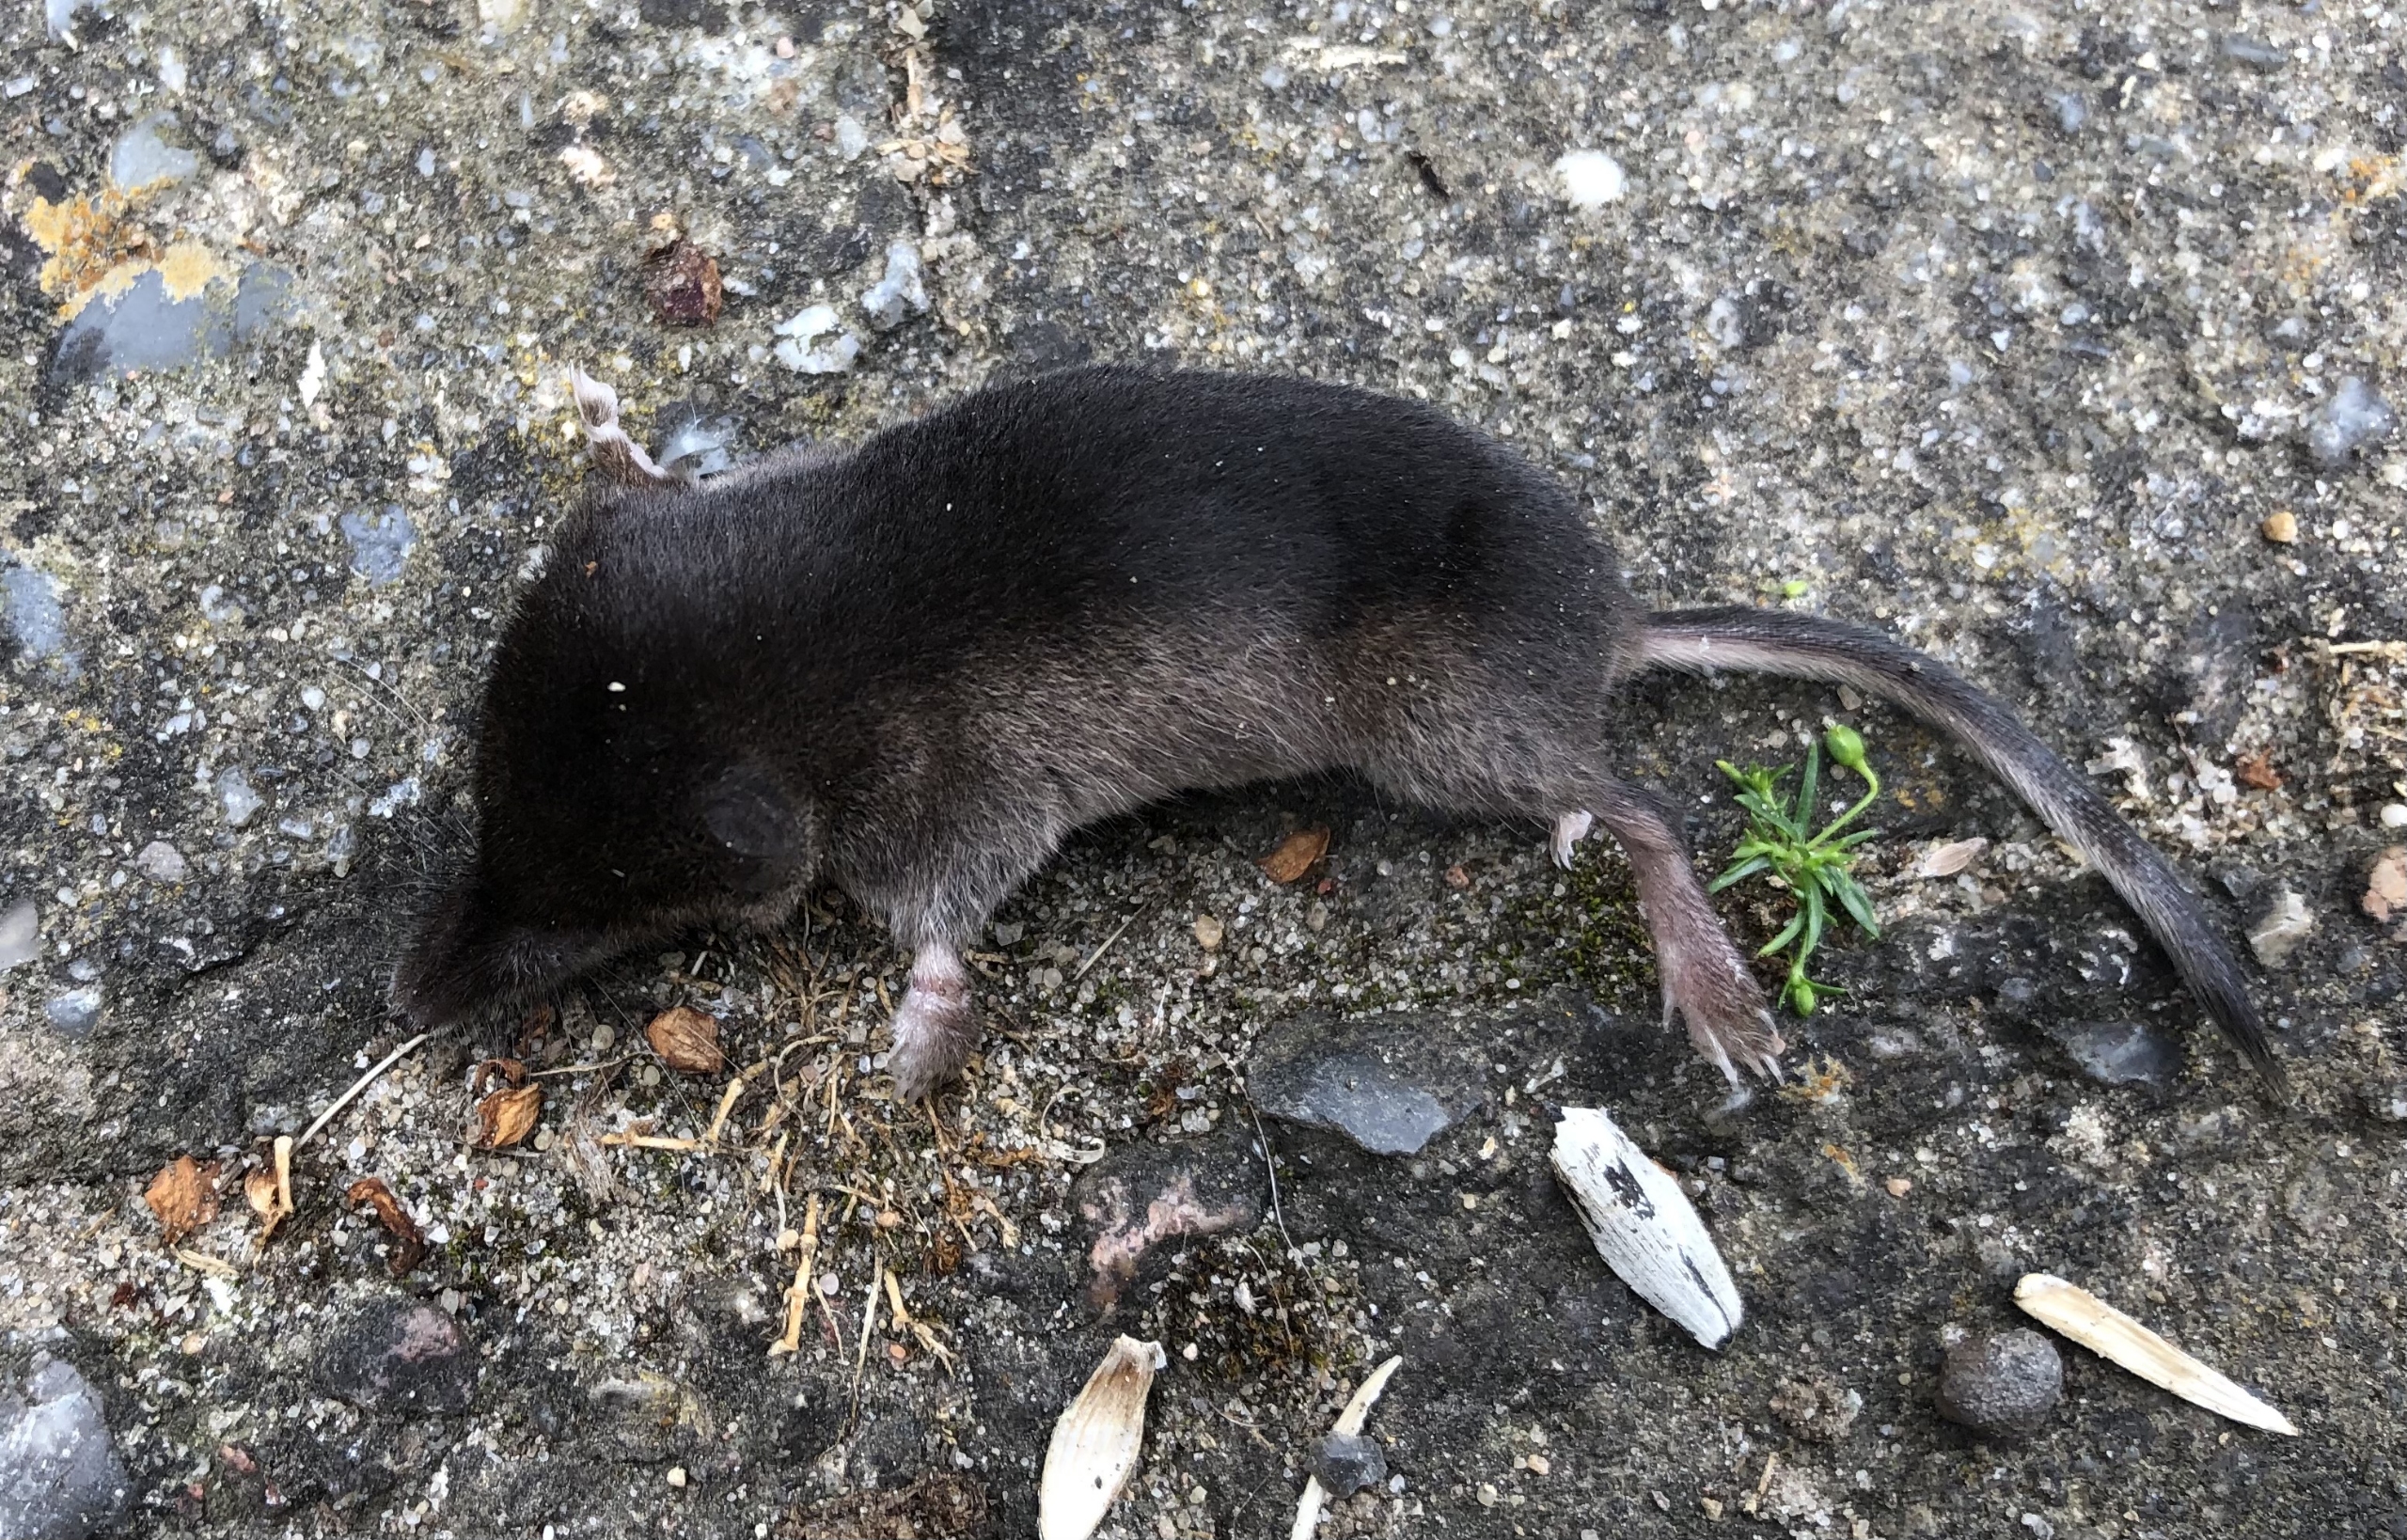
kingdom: Animalia
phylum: Chordata
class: Mammalia
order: Soricomorpha
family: Soricidae
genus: Sorex
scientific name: Sorex araneus
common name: Almindelig spidsmus
